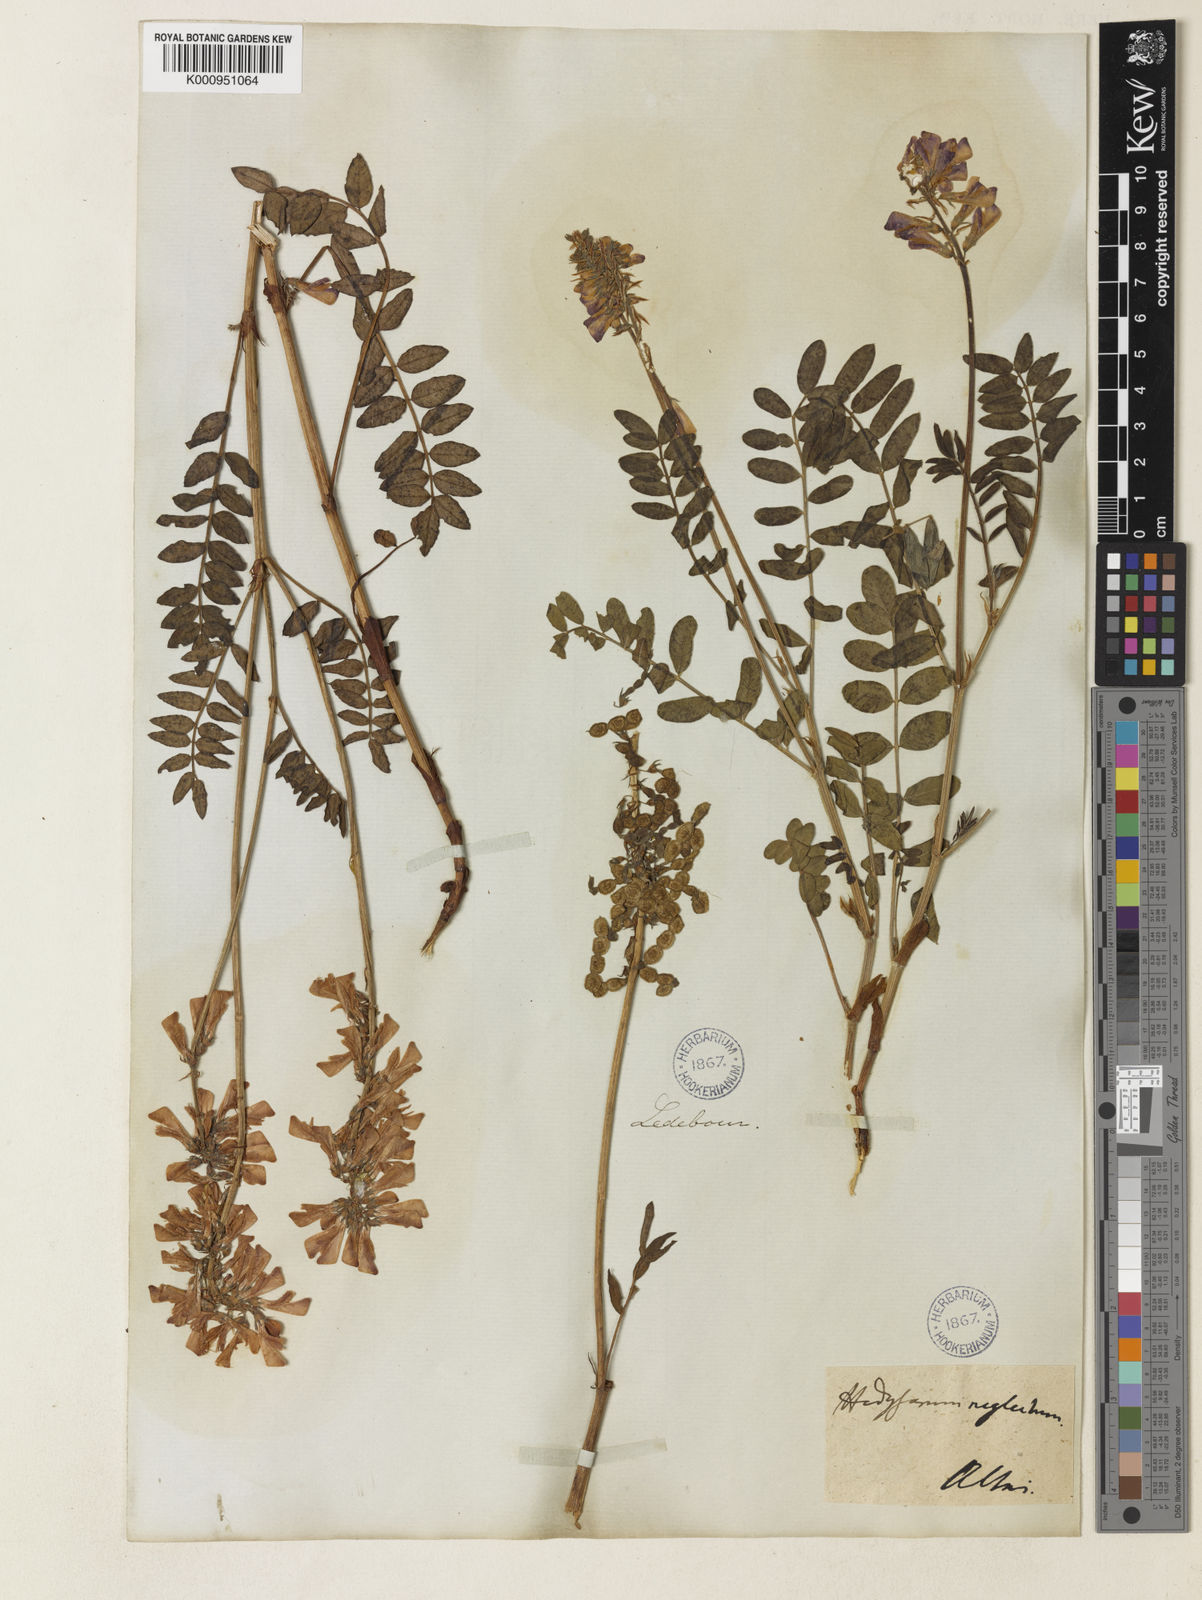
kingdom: Plantae
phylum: Tracheophyta
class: Magnoliopsida
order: Fabales
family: Fabaceae
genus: Hedysarum
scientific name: Hedysarum hedysaroides
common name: Alpine french-honeysuckle
